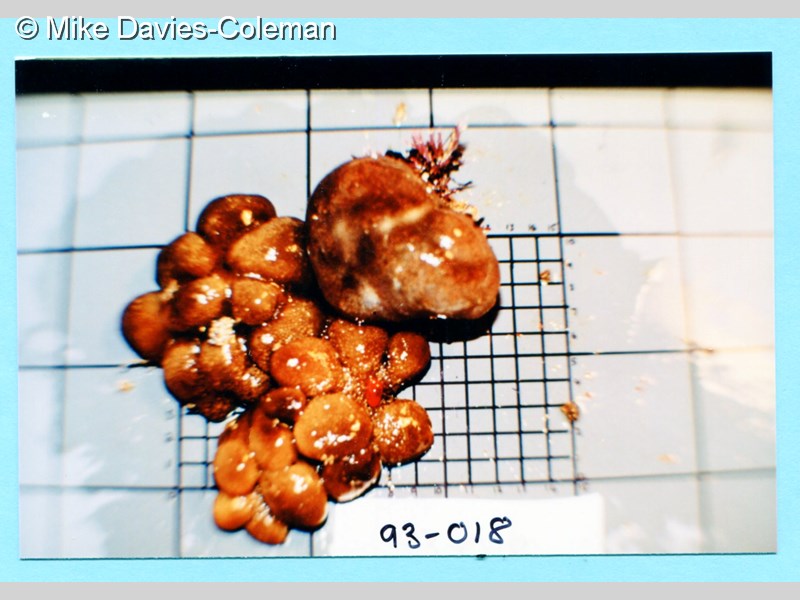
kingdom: Animalia
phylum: Chordata
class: Ascidiacea
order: Aplousobranchia
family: Polycitoridae
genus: Cystodytes
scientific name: Cystodytes
